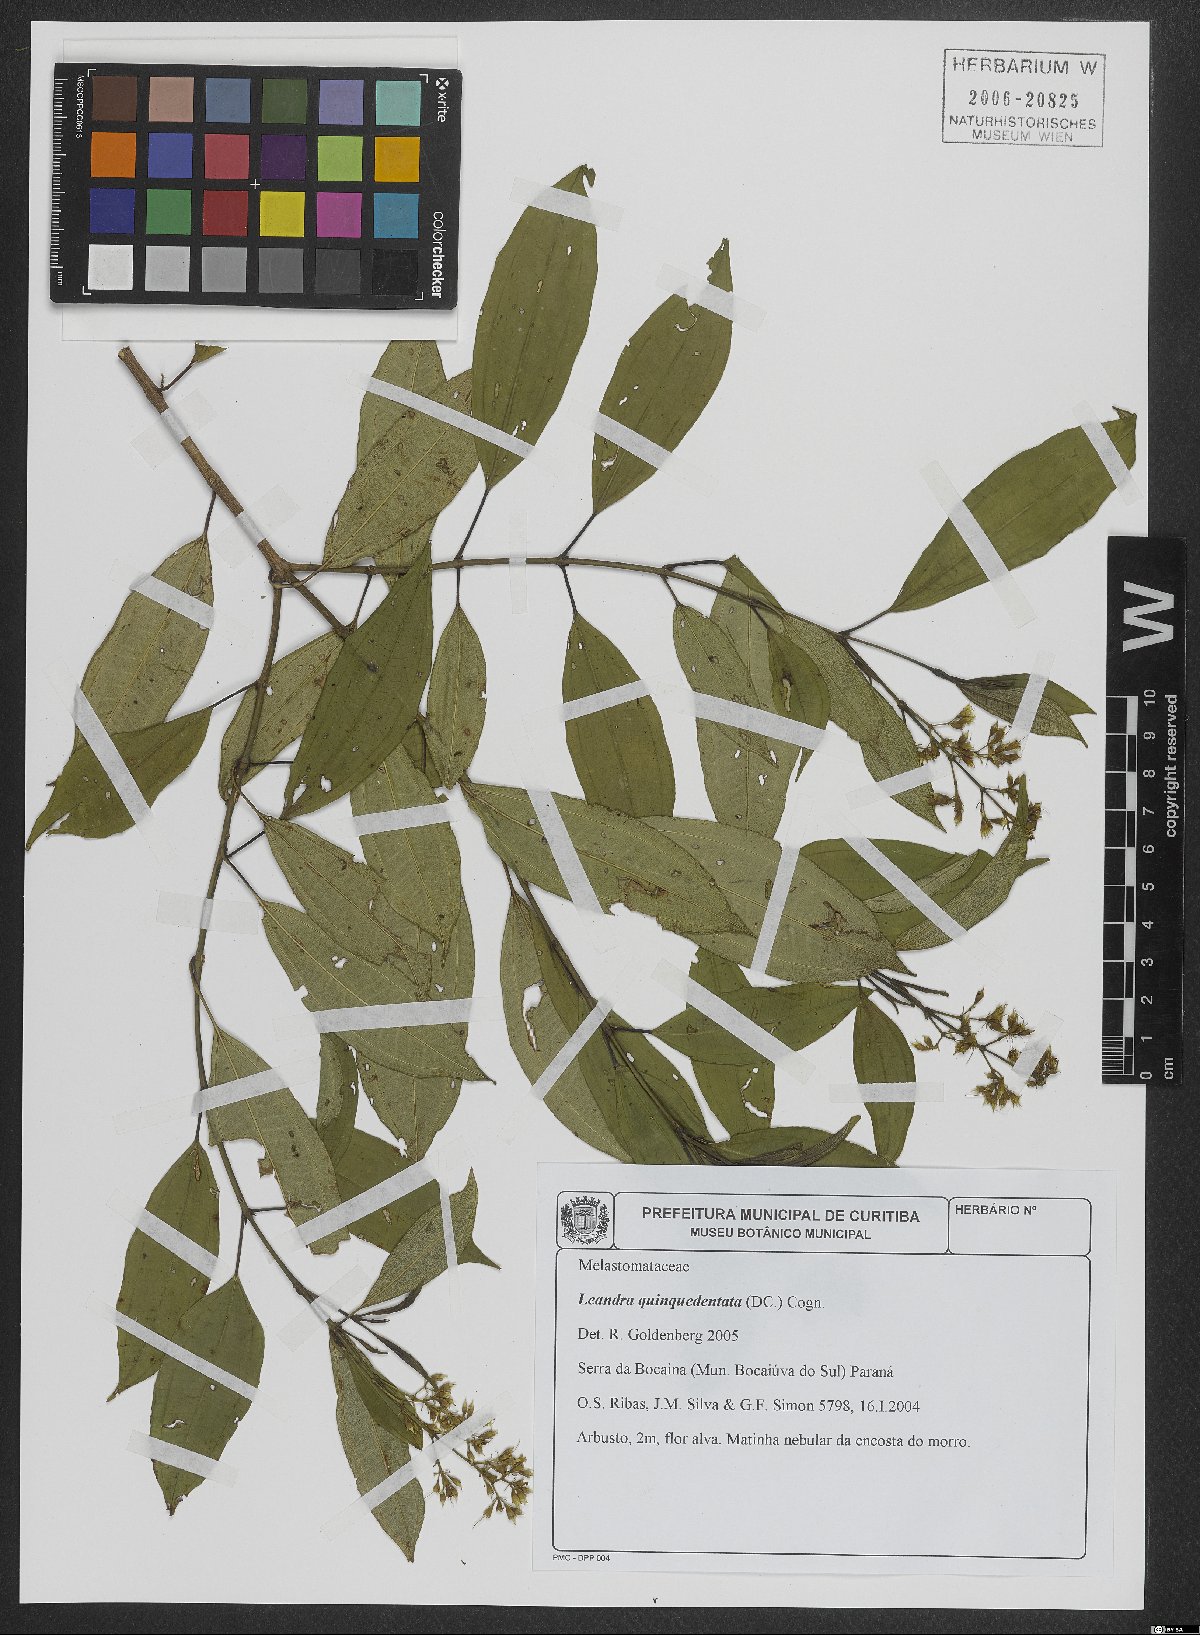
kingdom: Plantae
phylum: Tracheophyta
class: Magnoliopsida
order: Myrtales
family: Melastomataceae
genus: Miconia
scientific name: Miconia quinquedentata
